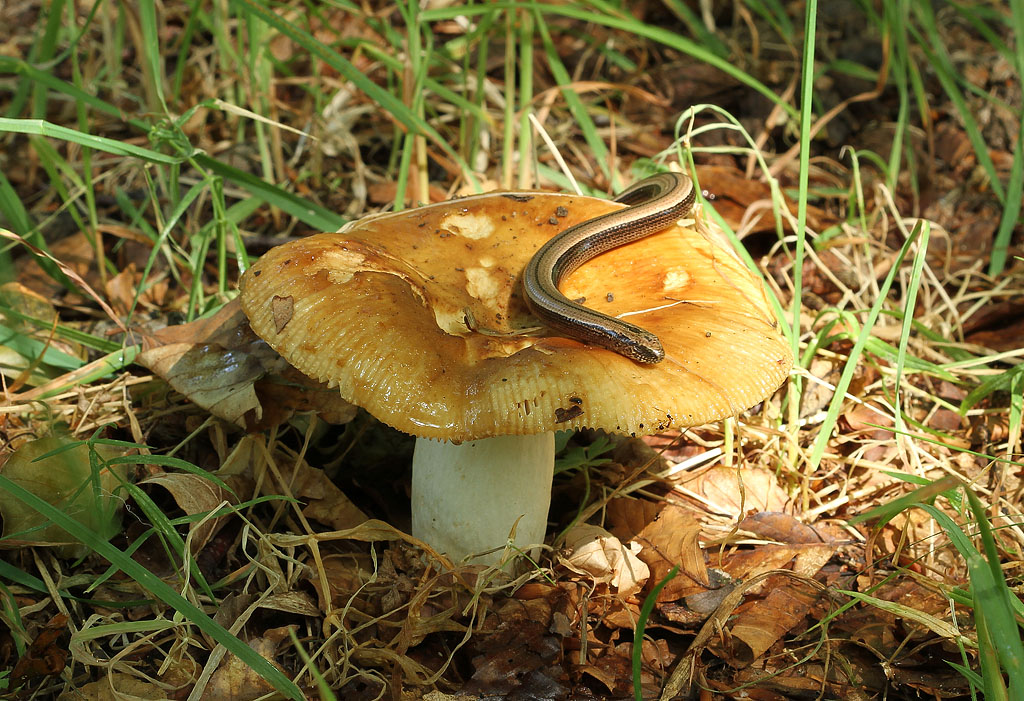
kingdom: Fungi
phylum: Basidiomycota
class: Agaricomycetes
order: Russulales
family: Russulaceae
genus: Russula
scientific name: Russula foetens
